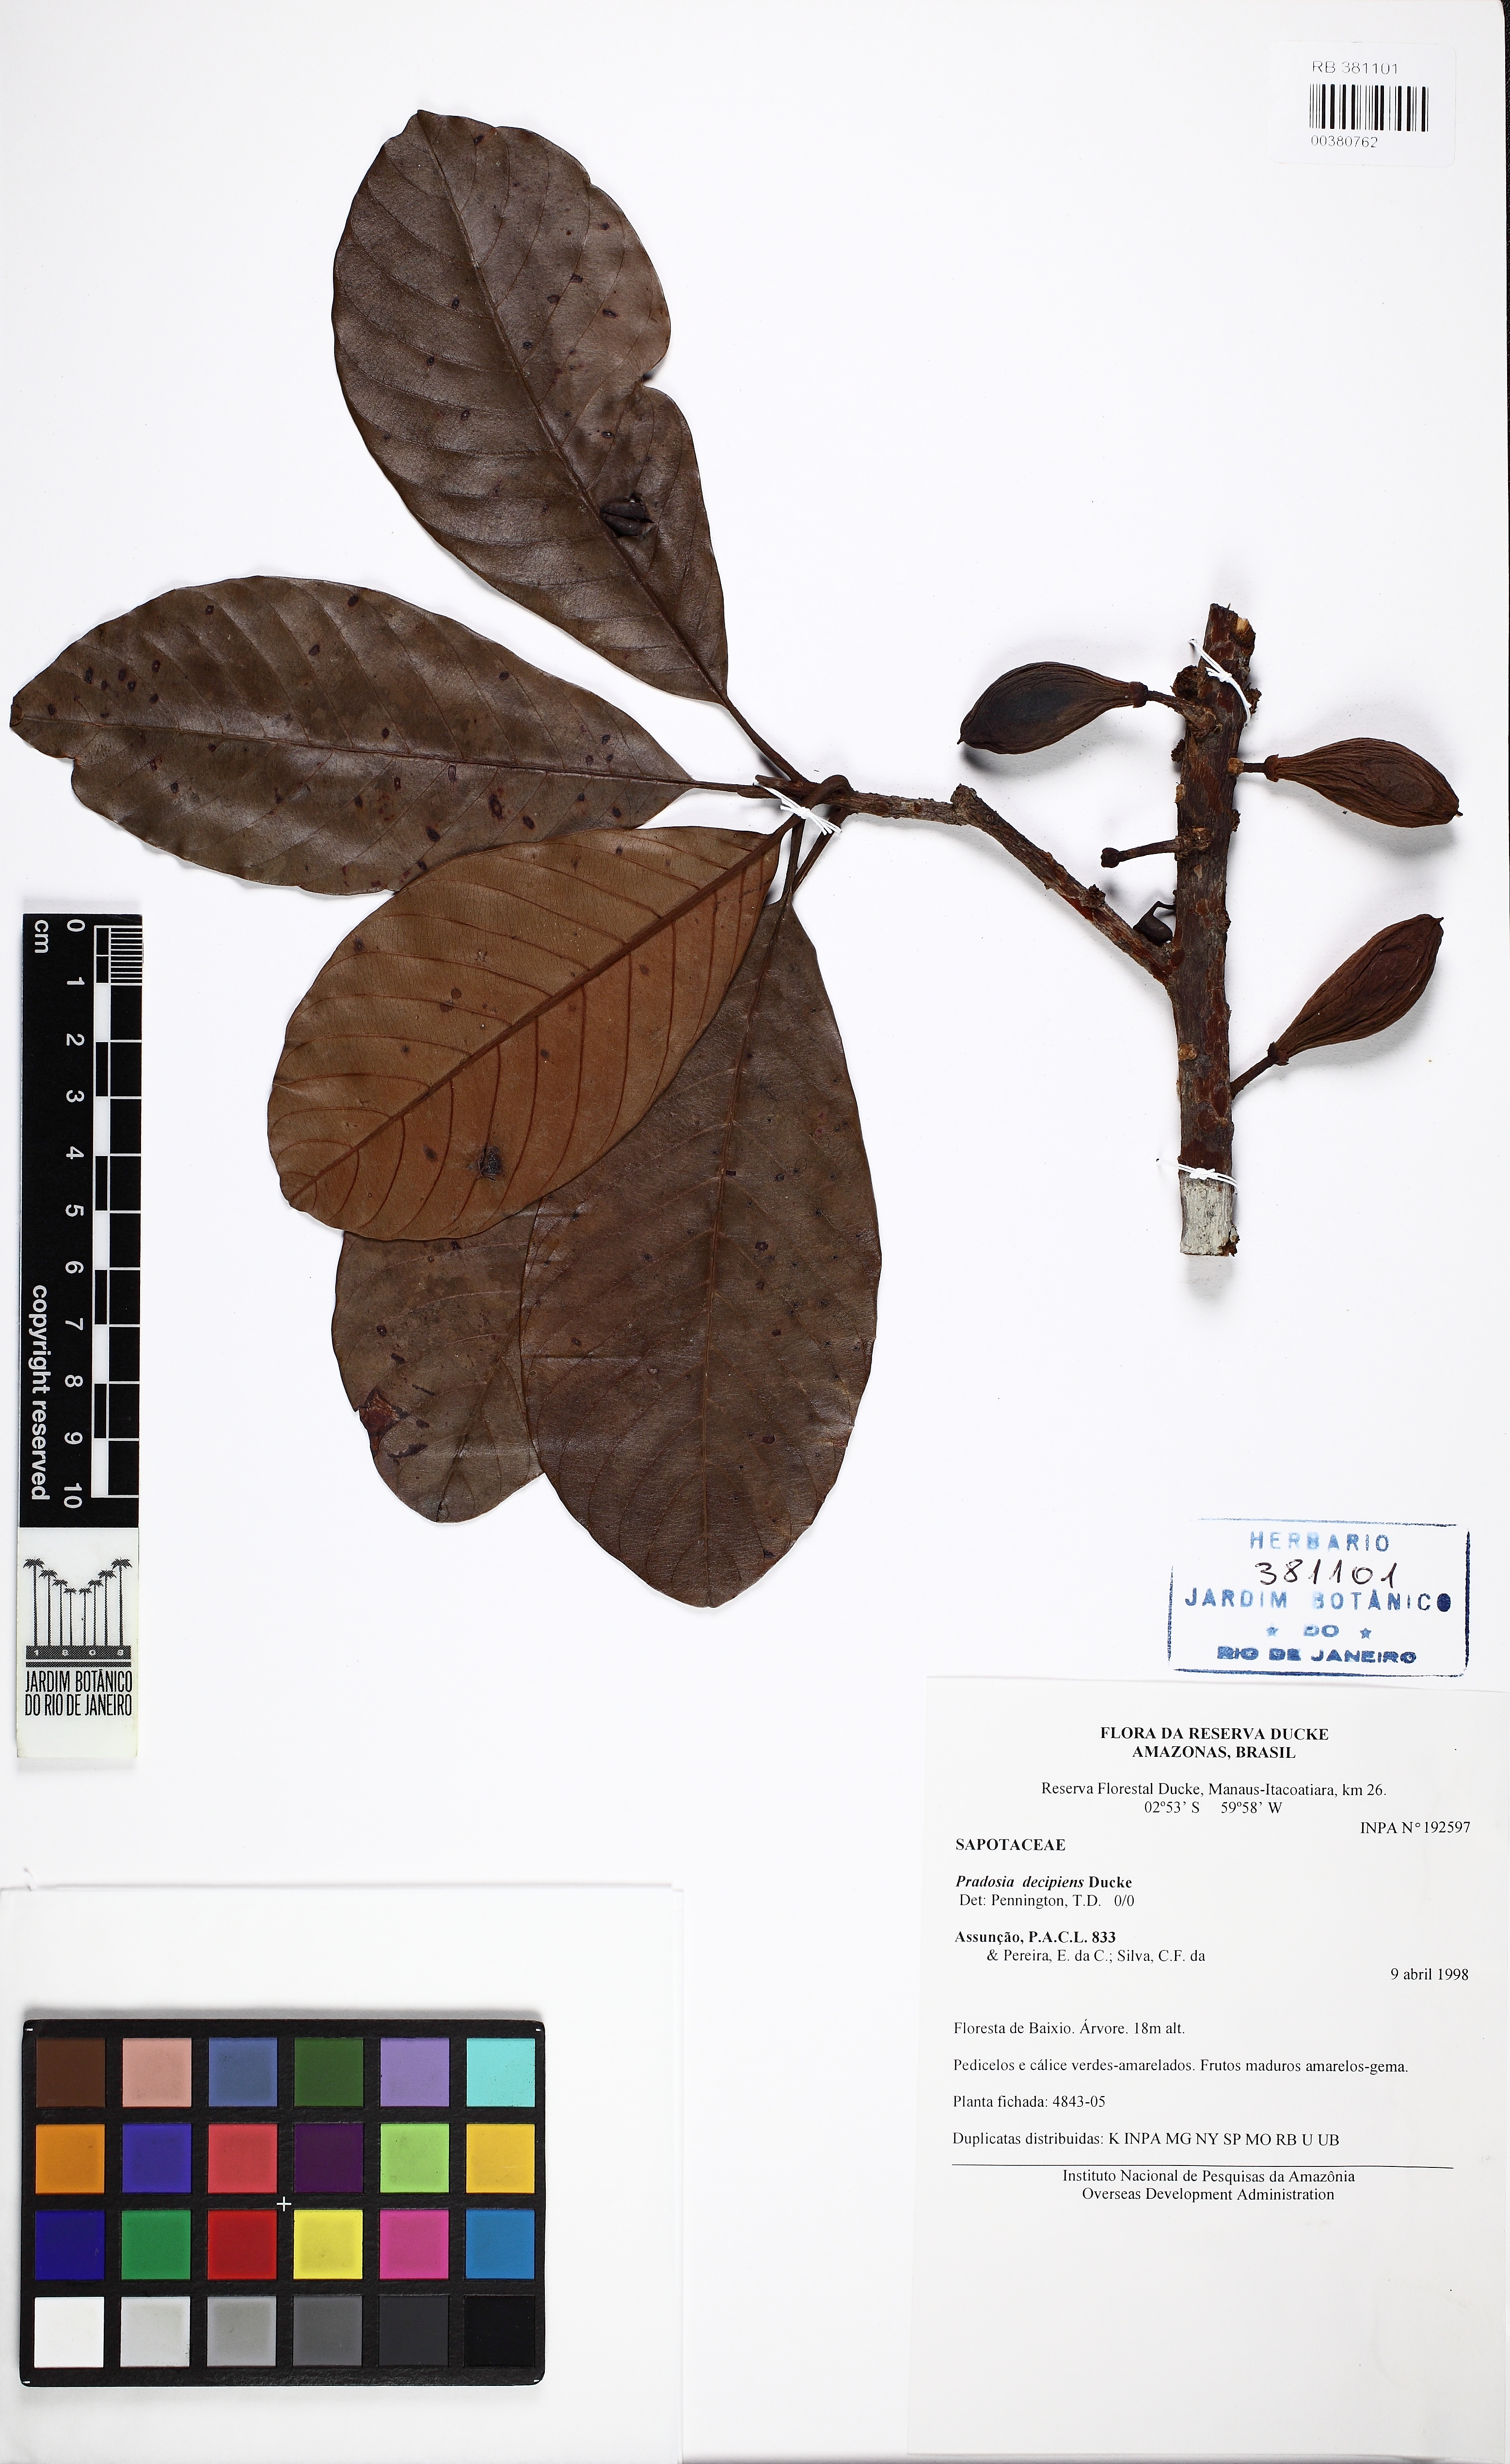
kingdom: Plantae
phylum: Tracheophyta
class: Magnoliopsida
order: Ericales
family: Sapotaceae
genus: Pradosia
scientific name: Pradosia decipiens
